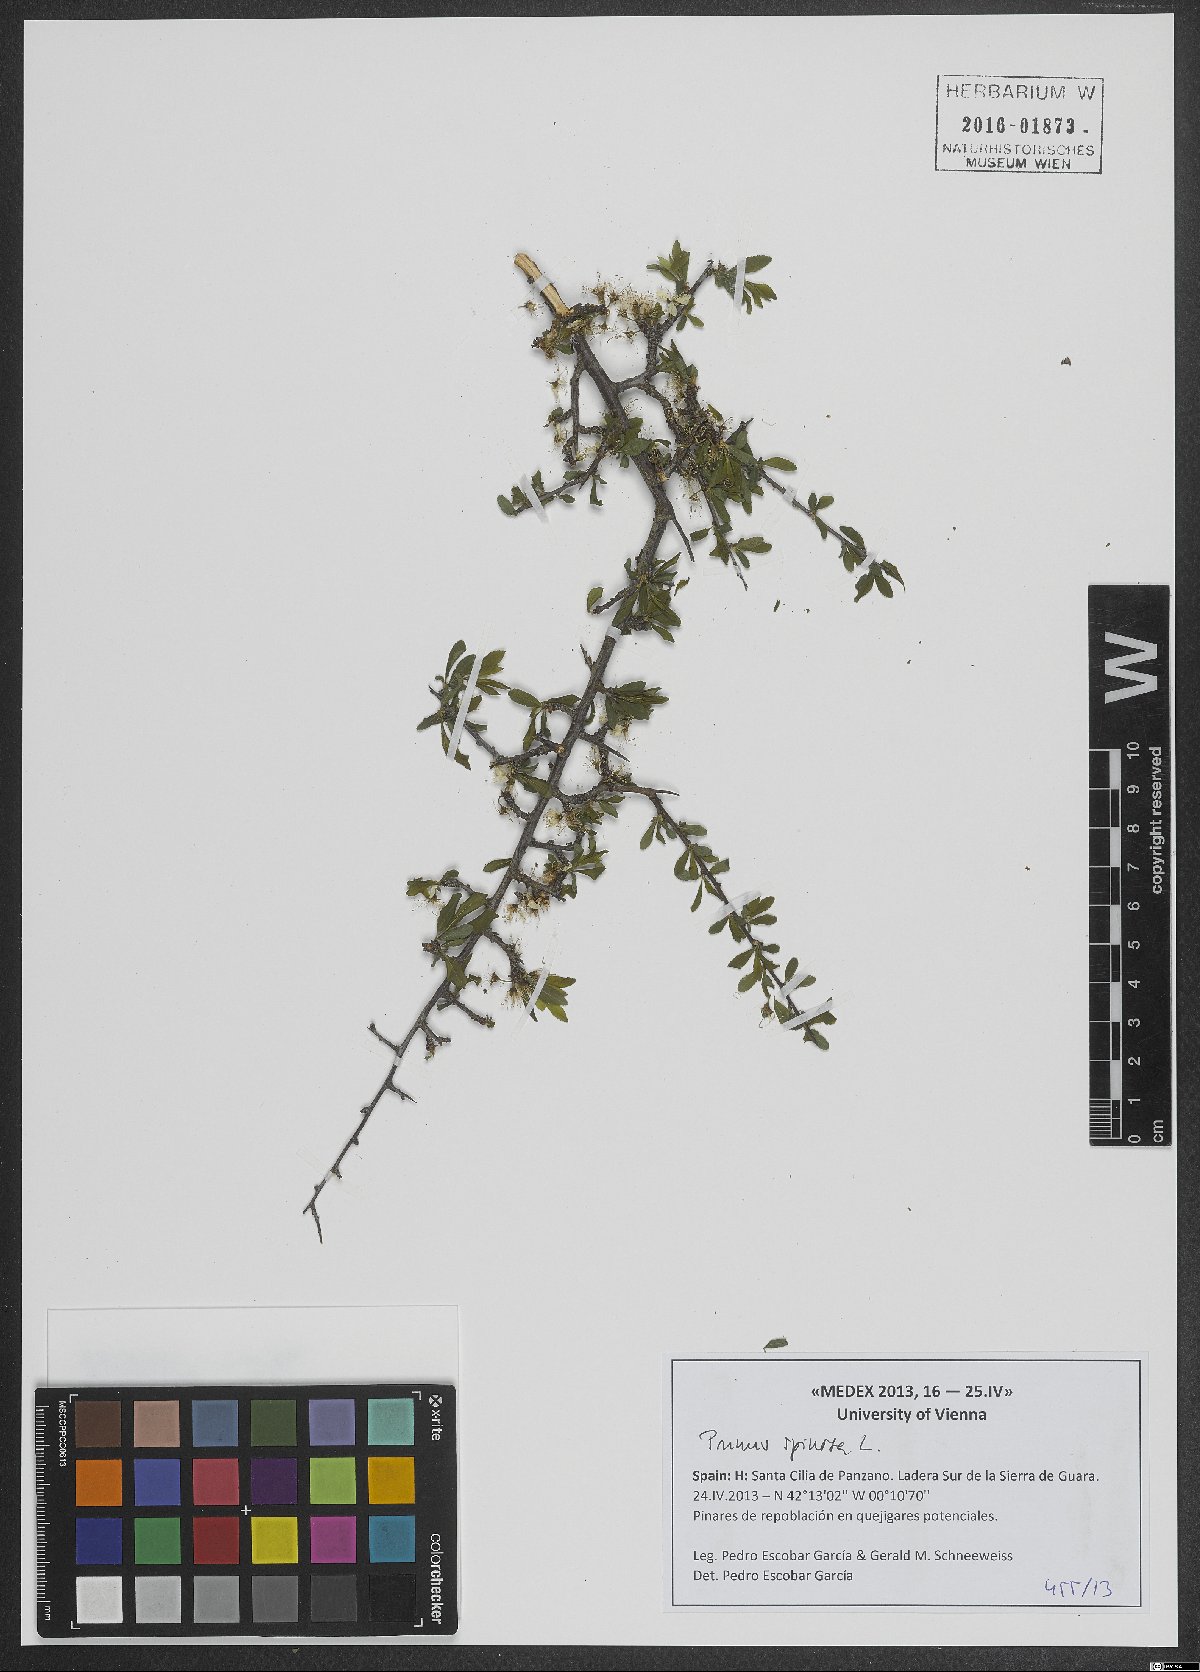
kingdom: Plantae
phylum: Tracheophyta
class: Magnoliopsida
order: Rosales
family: Rosaceae
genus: Prunus
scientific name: Prunus spinosa
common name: Blackthorn
